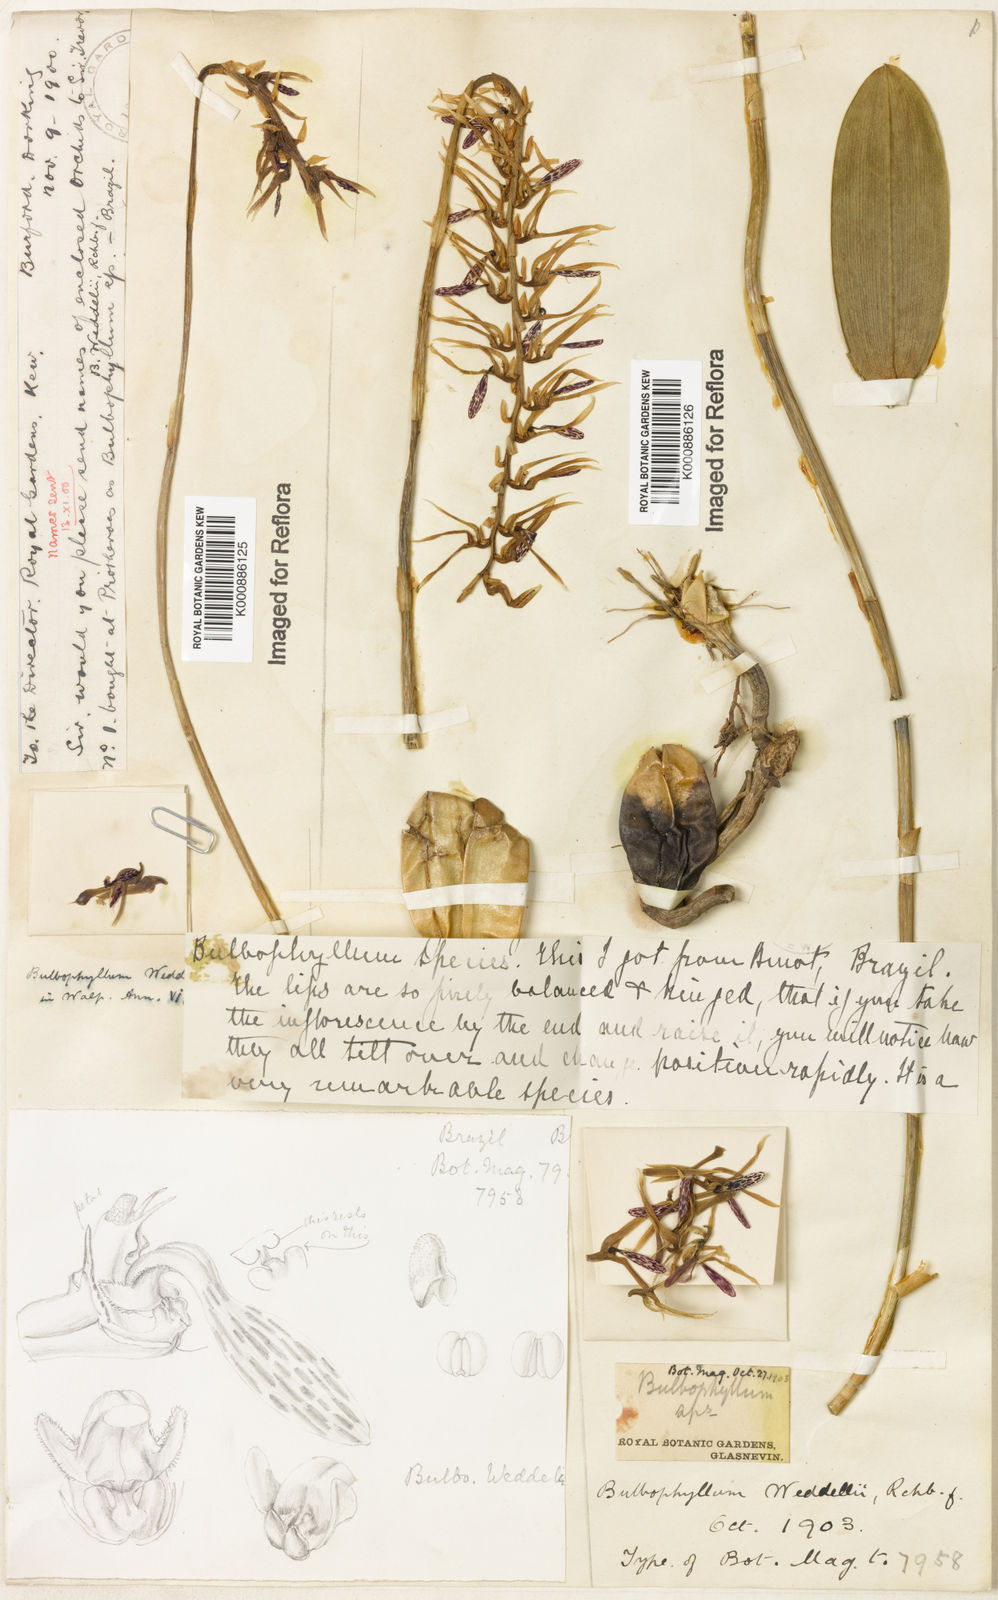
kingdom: Plantae
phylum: Tracheophyta
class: Liliopsida
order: Asparagales
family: Orchidaceae
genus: Bulbophyllum
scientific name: Bulbophyllum weddellii
